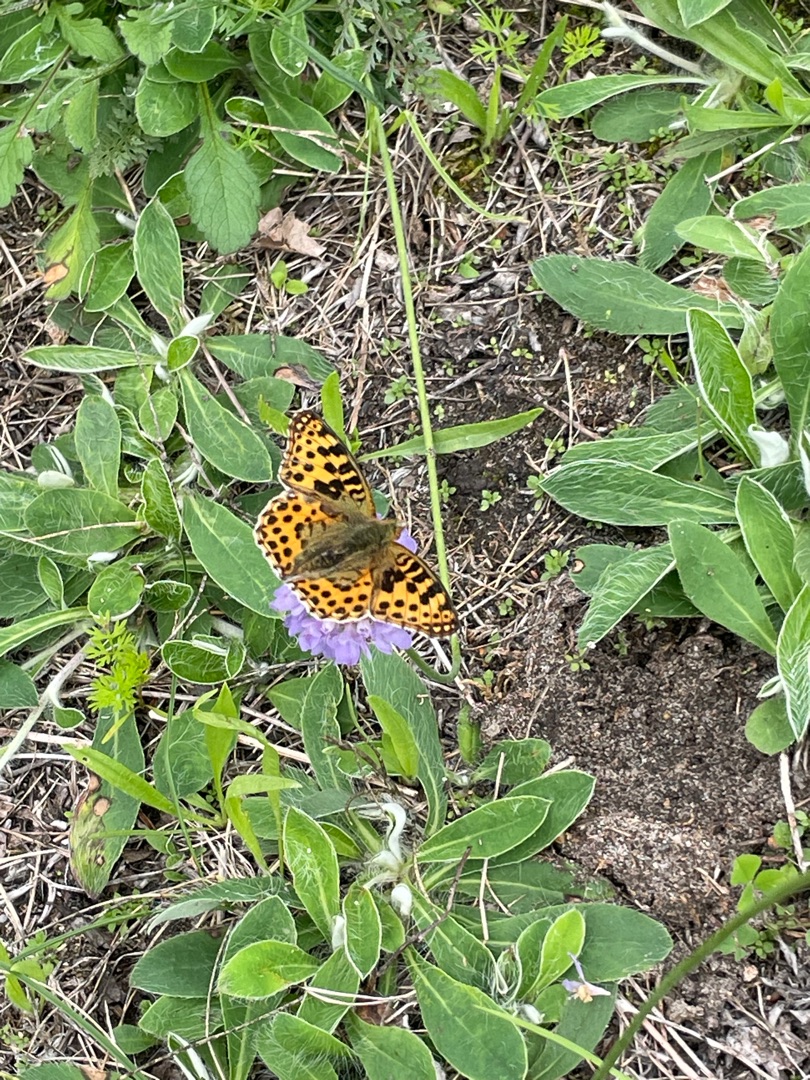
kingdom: Animalia
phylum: Arthropoda
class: Insecta
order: Lepidoptera
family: Nymphalidae
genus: Issoria
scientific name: Issoria lathonia
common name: Storplettet perlemorsommerfugl
